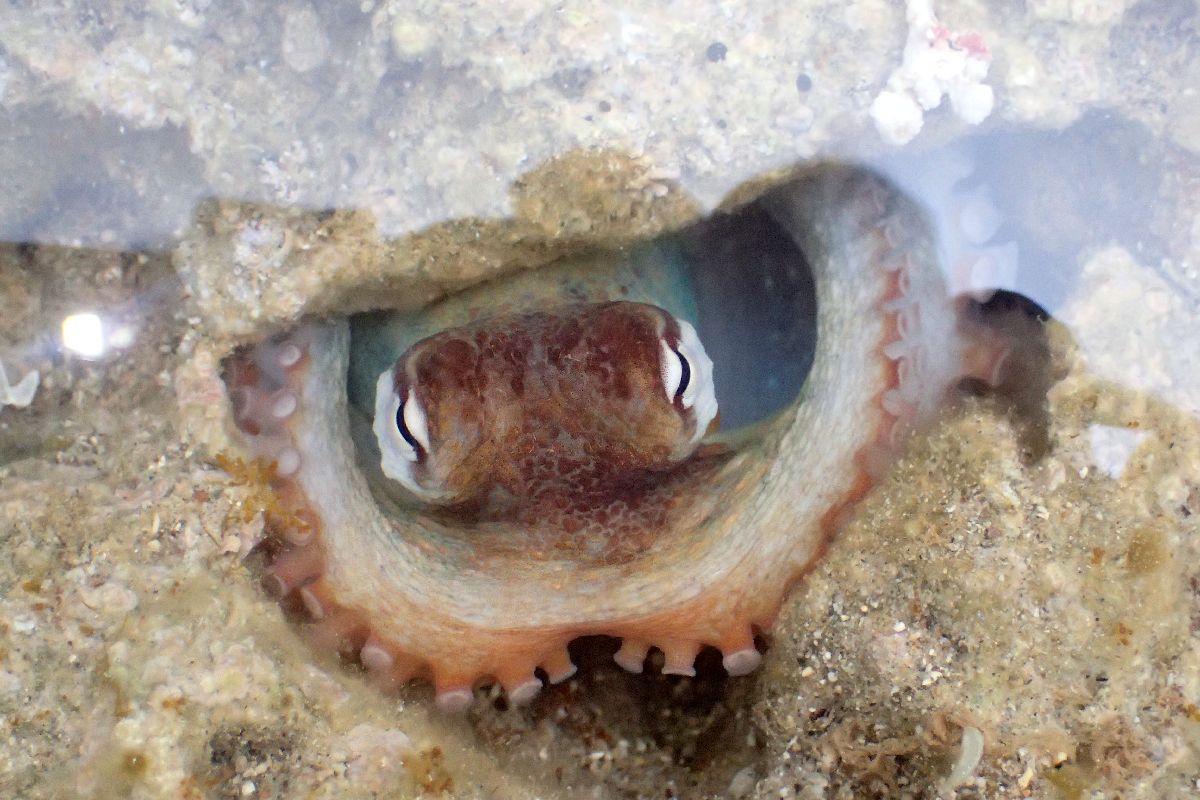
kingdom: Animalia
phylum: Mollusca
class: Cephalopoda
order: Octopoda
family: Octopodidae
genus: Octopus
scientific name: Octopus vulgaris
